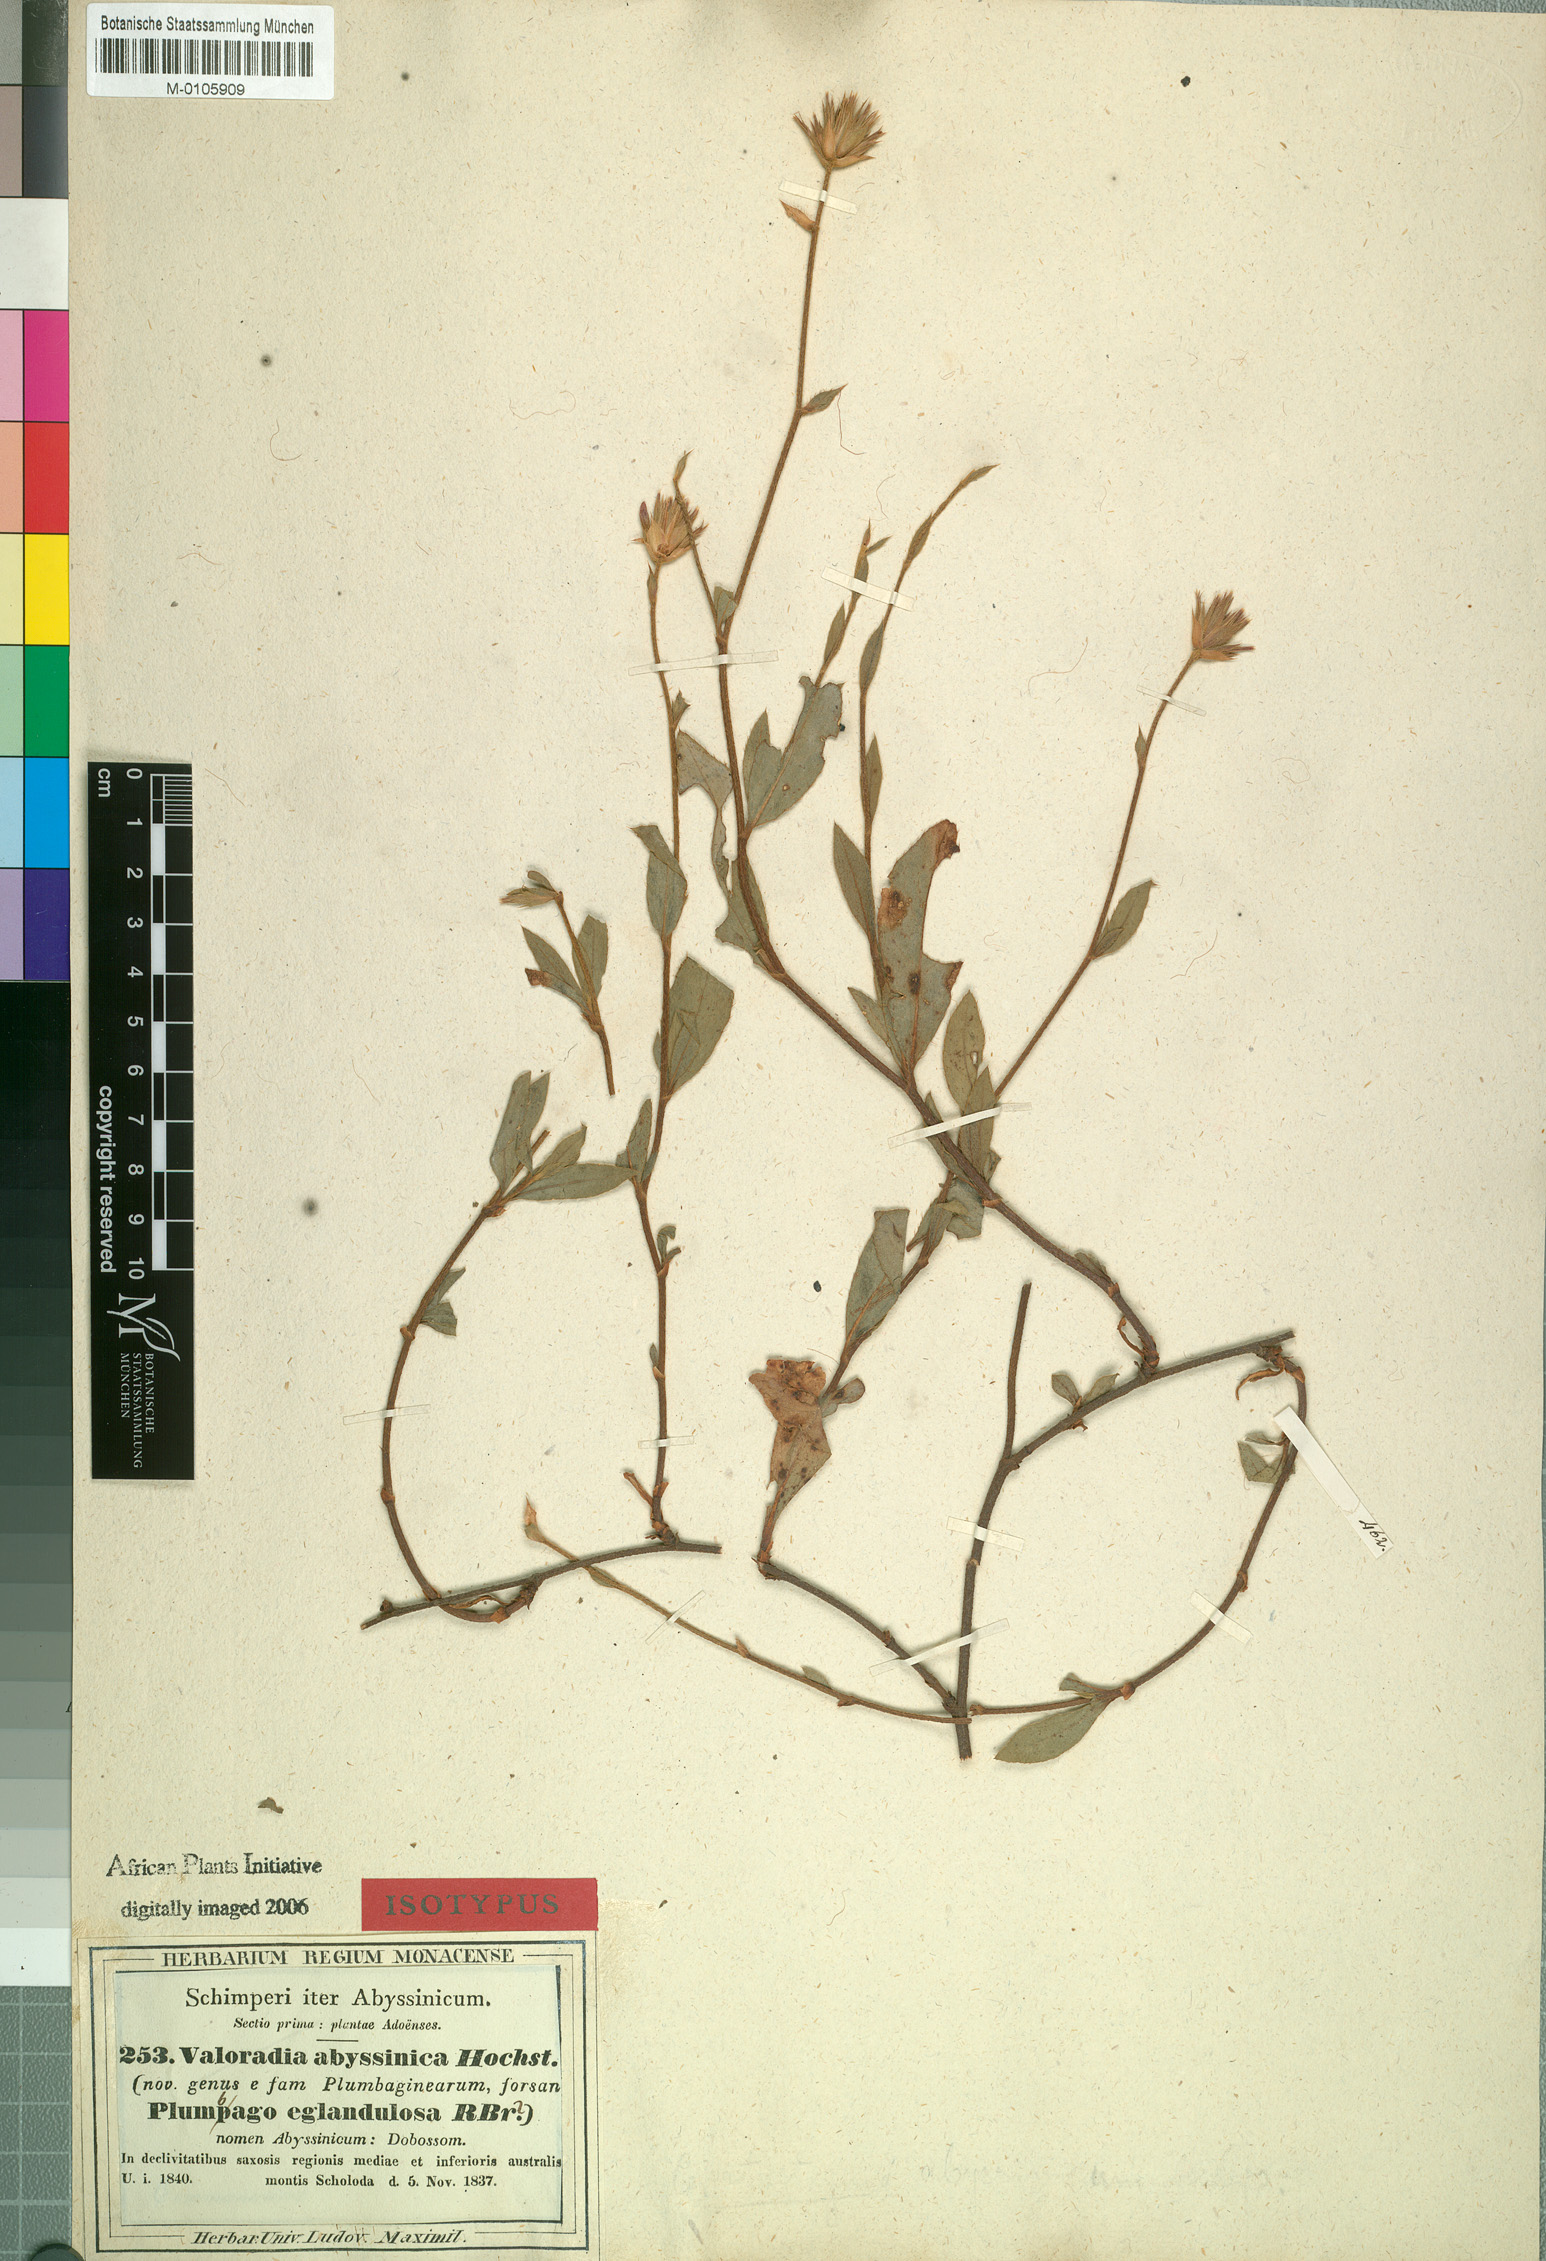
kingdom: Plantae
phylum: Tracheophyta
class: Magnoliopsida
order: Caryophyllales
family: Plumbaginaceae
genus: Ceratostigma
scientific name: Ceratostigma abyssinicum
